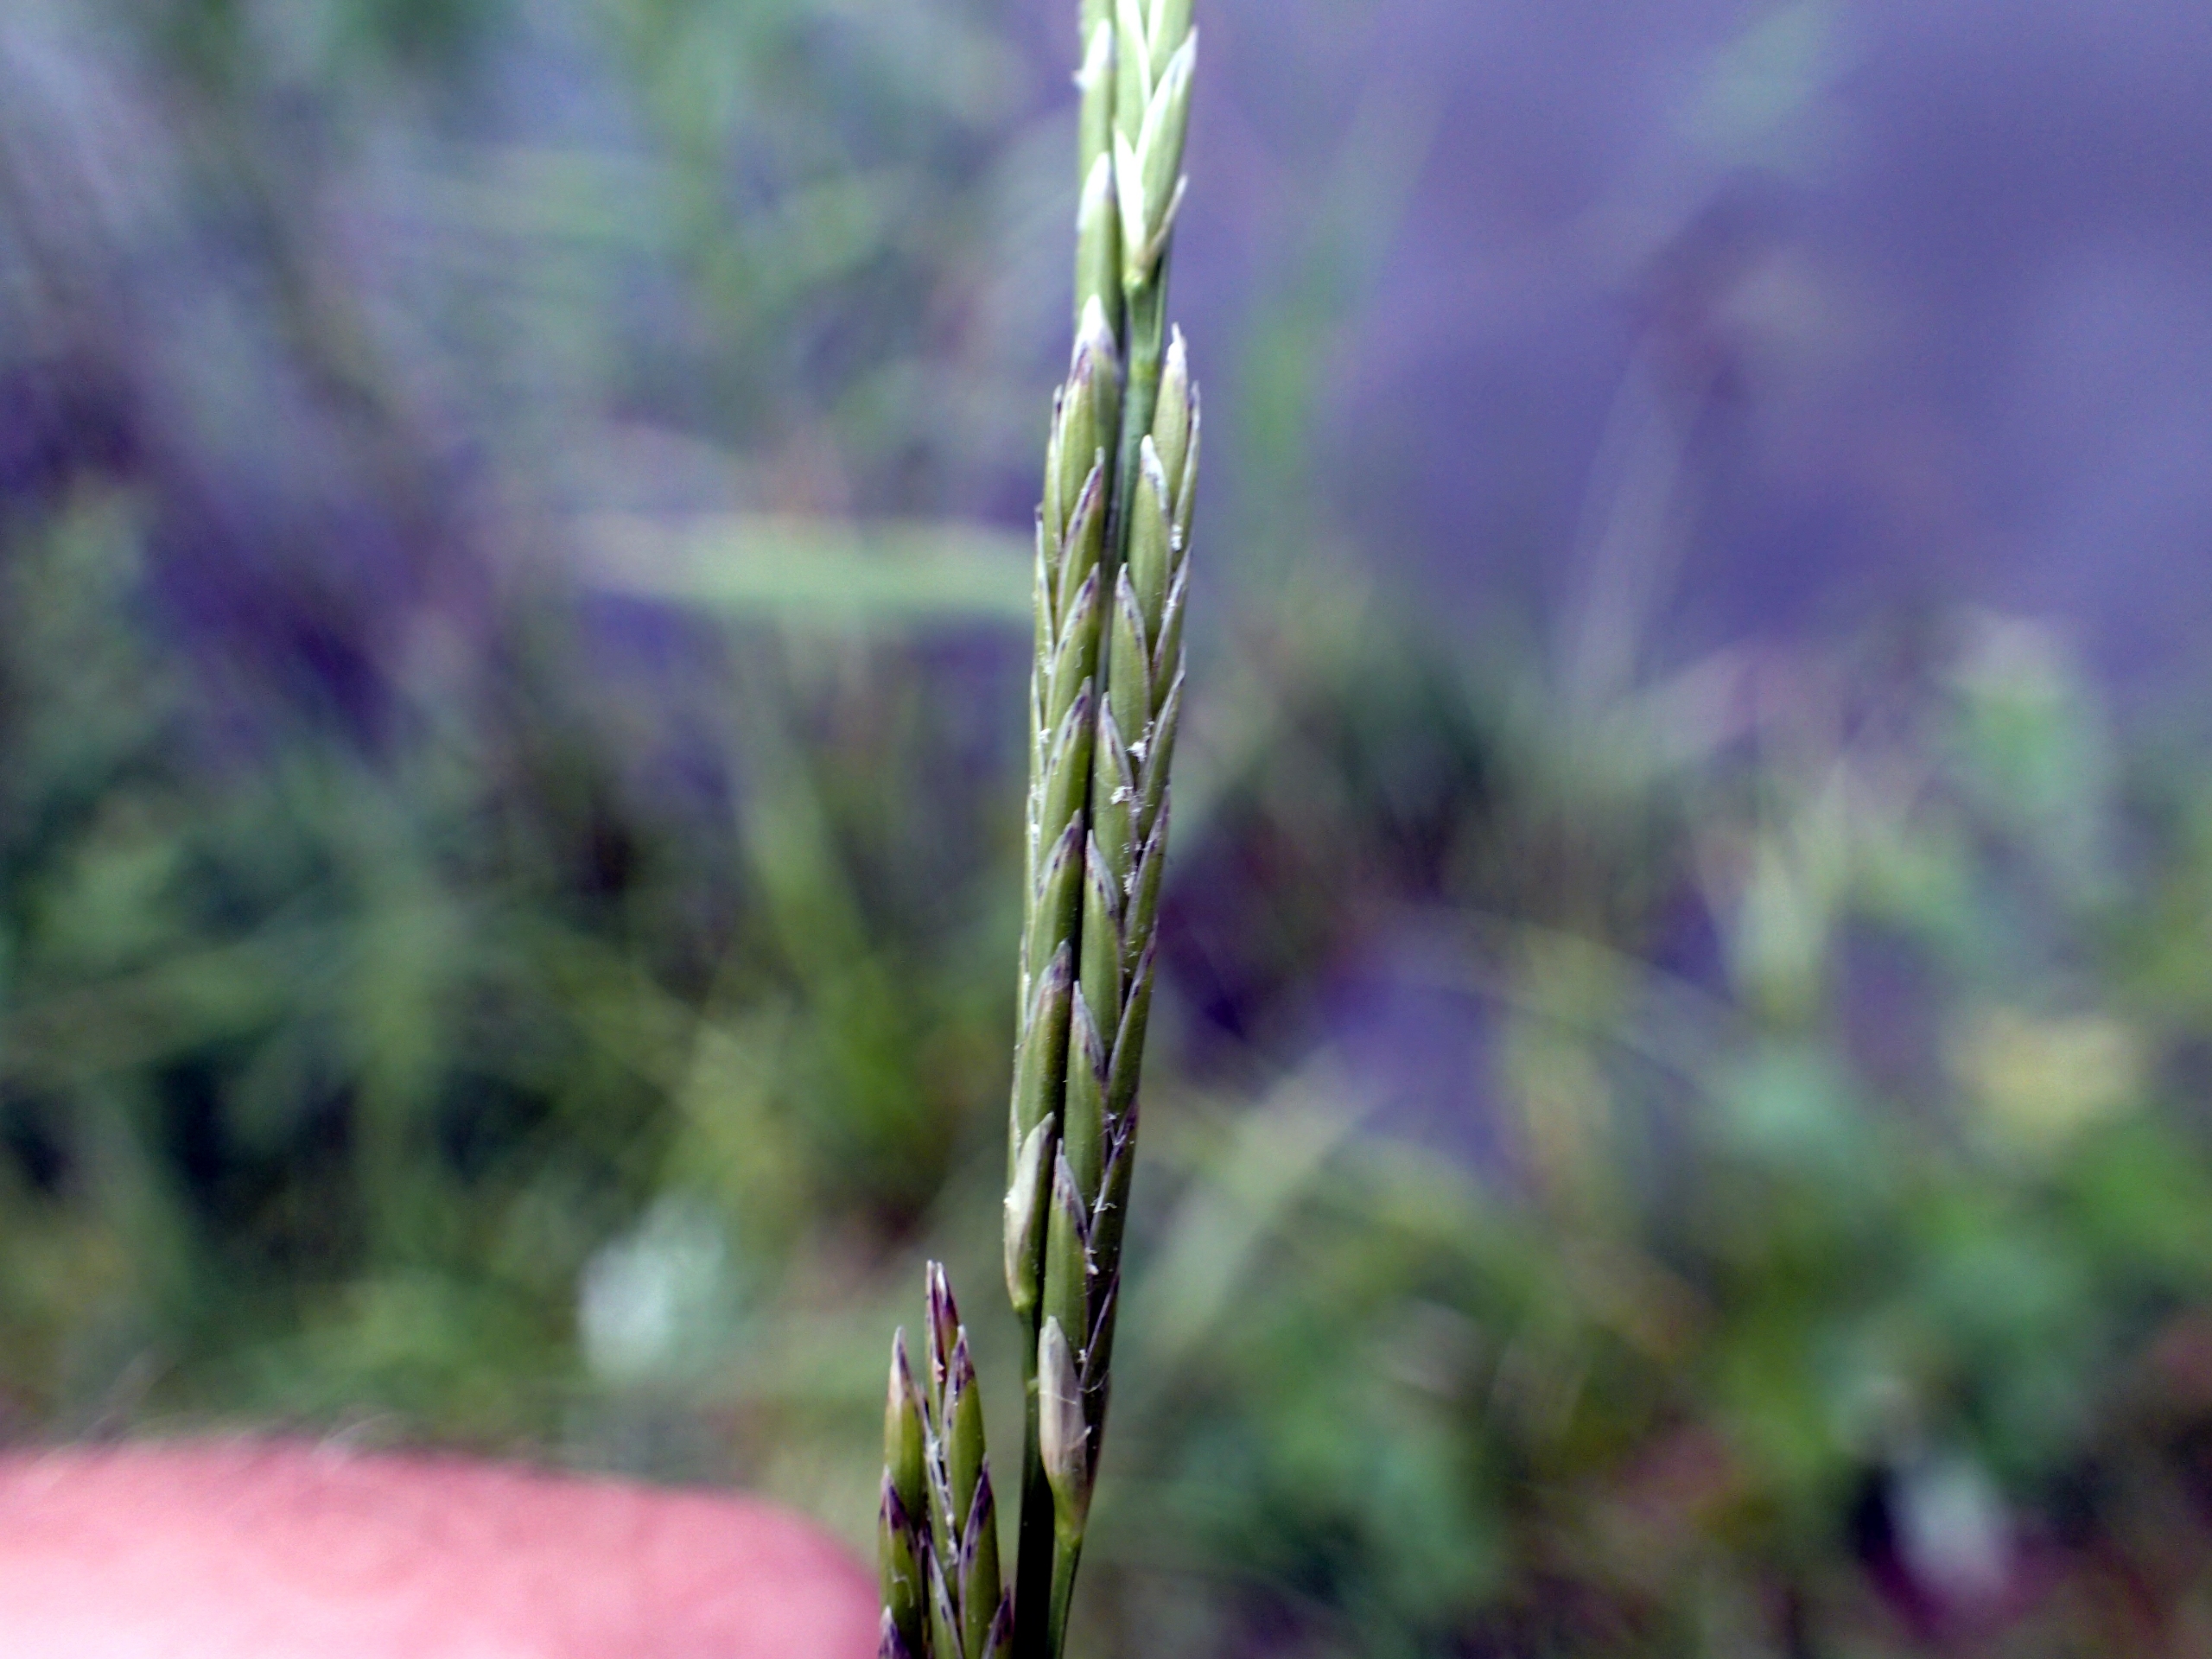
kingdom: Plantae
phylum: Tracheophyta
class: Liliopsida
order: Poales
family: Poaceae
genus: Glyceria
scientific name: Glyceria fluitans
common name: Manna-sødgræs
